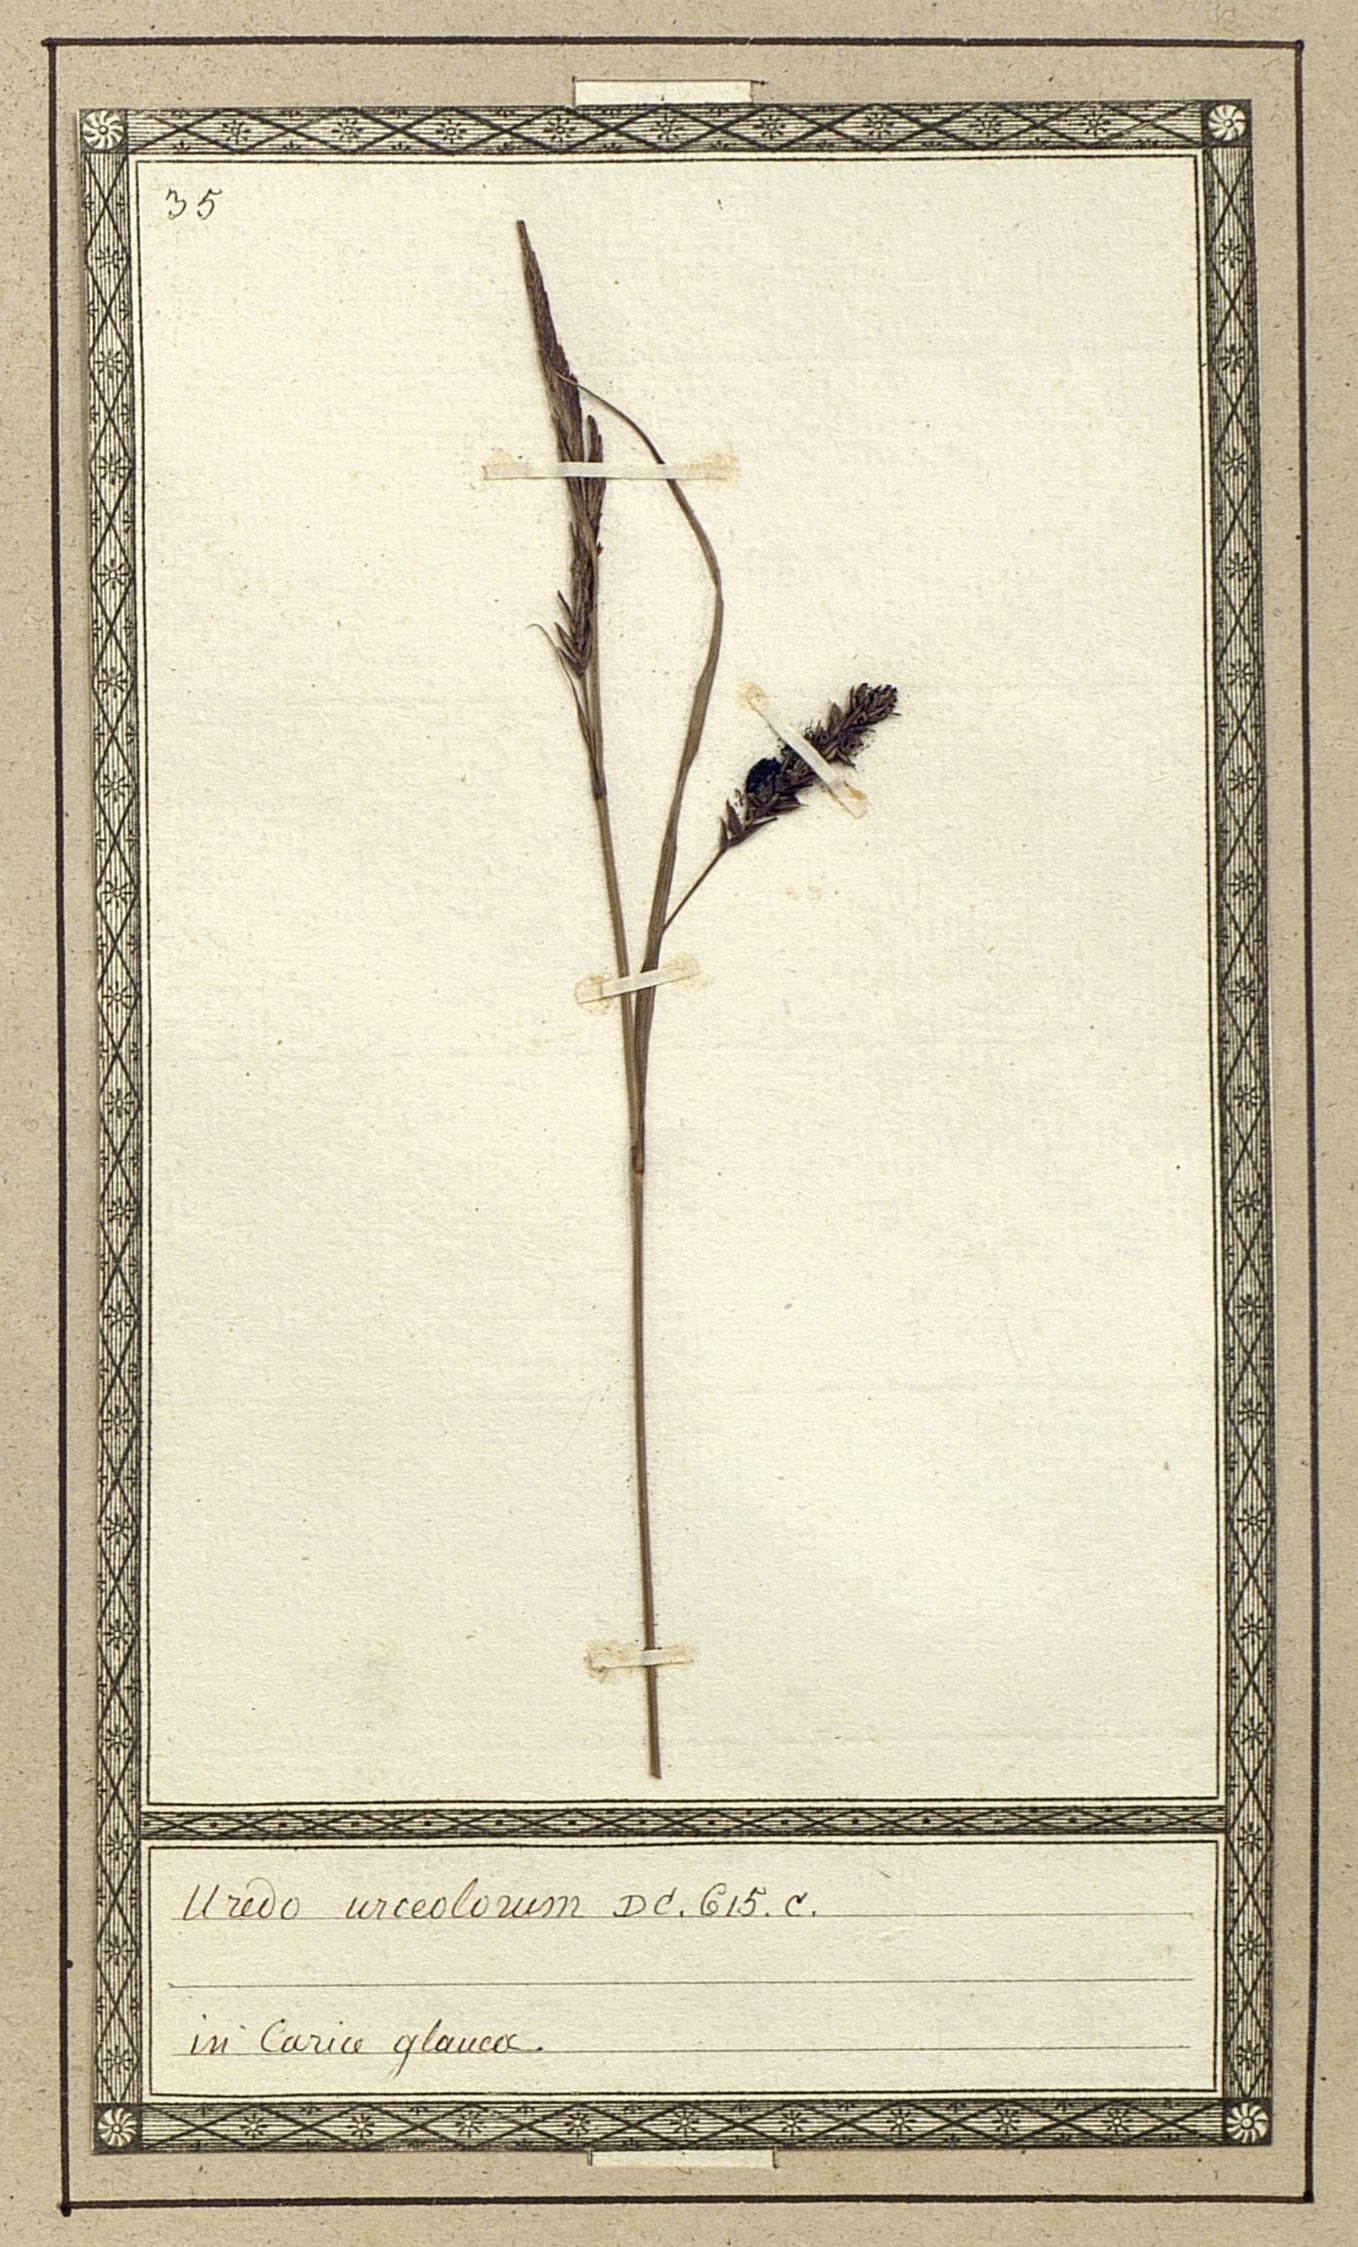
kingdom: Fungi
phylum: Basidiomycota
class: Ustilaginomycetes
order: Ustilaginales
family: Anthracoideaceae
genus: Anthracoidea
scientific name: Anthracoidea caricis
